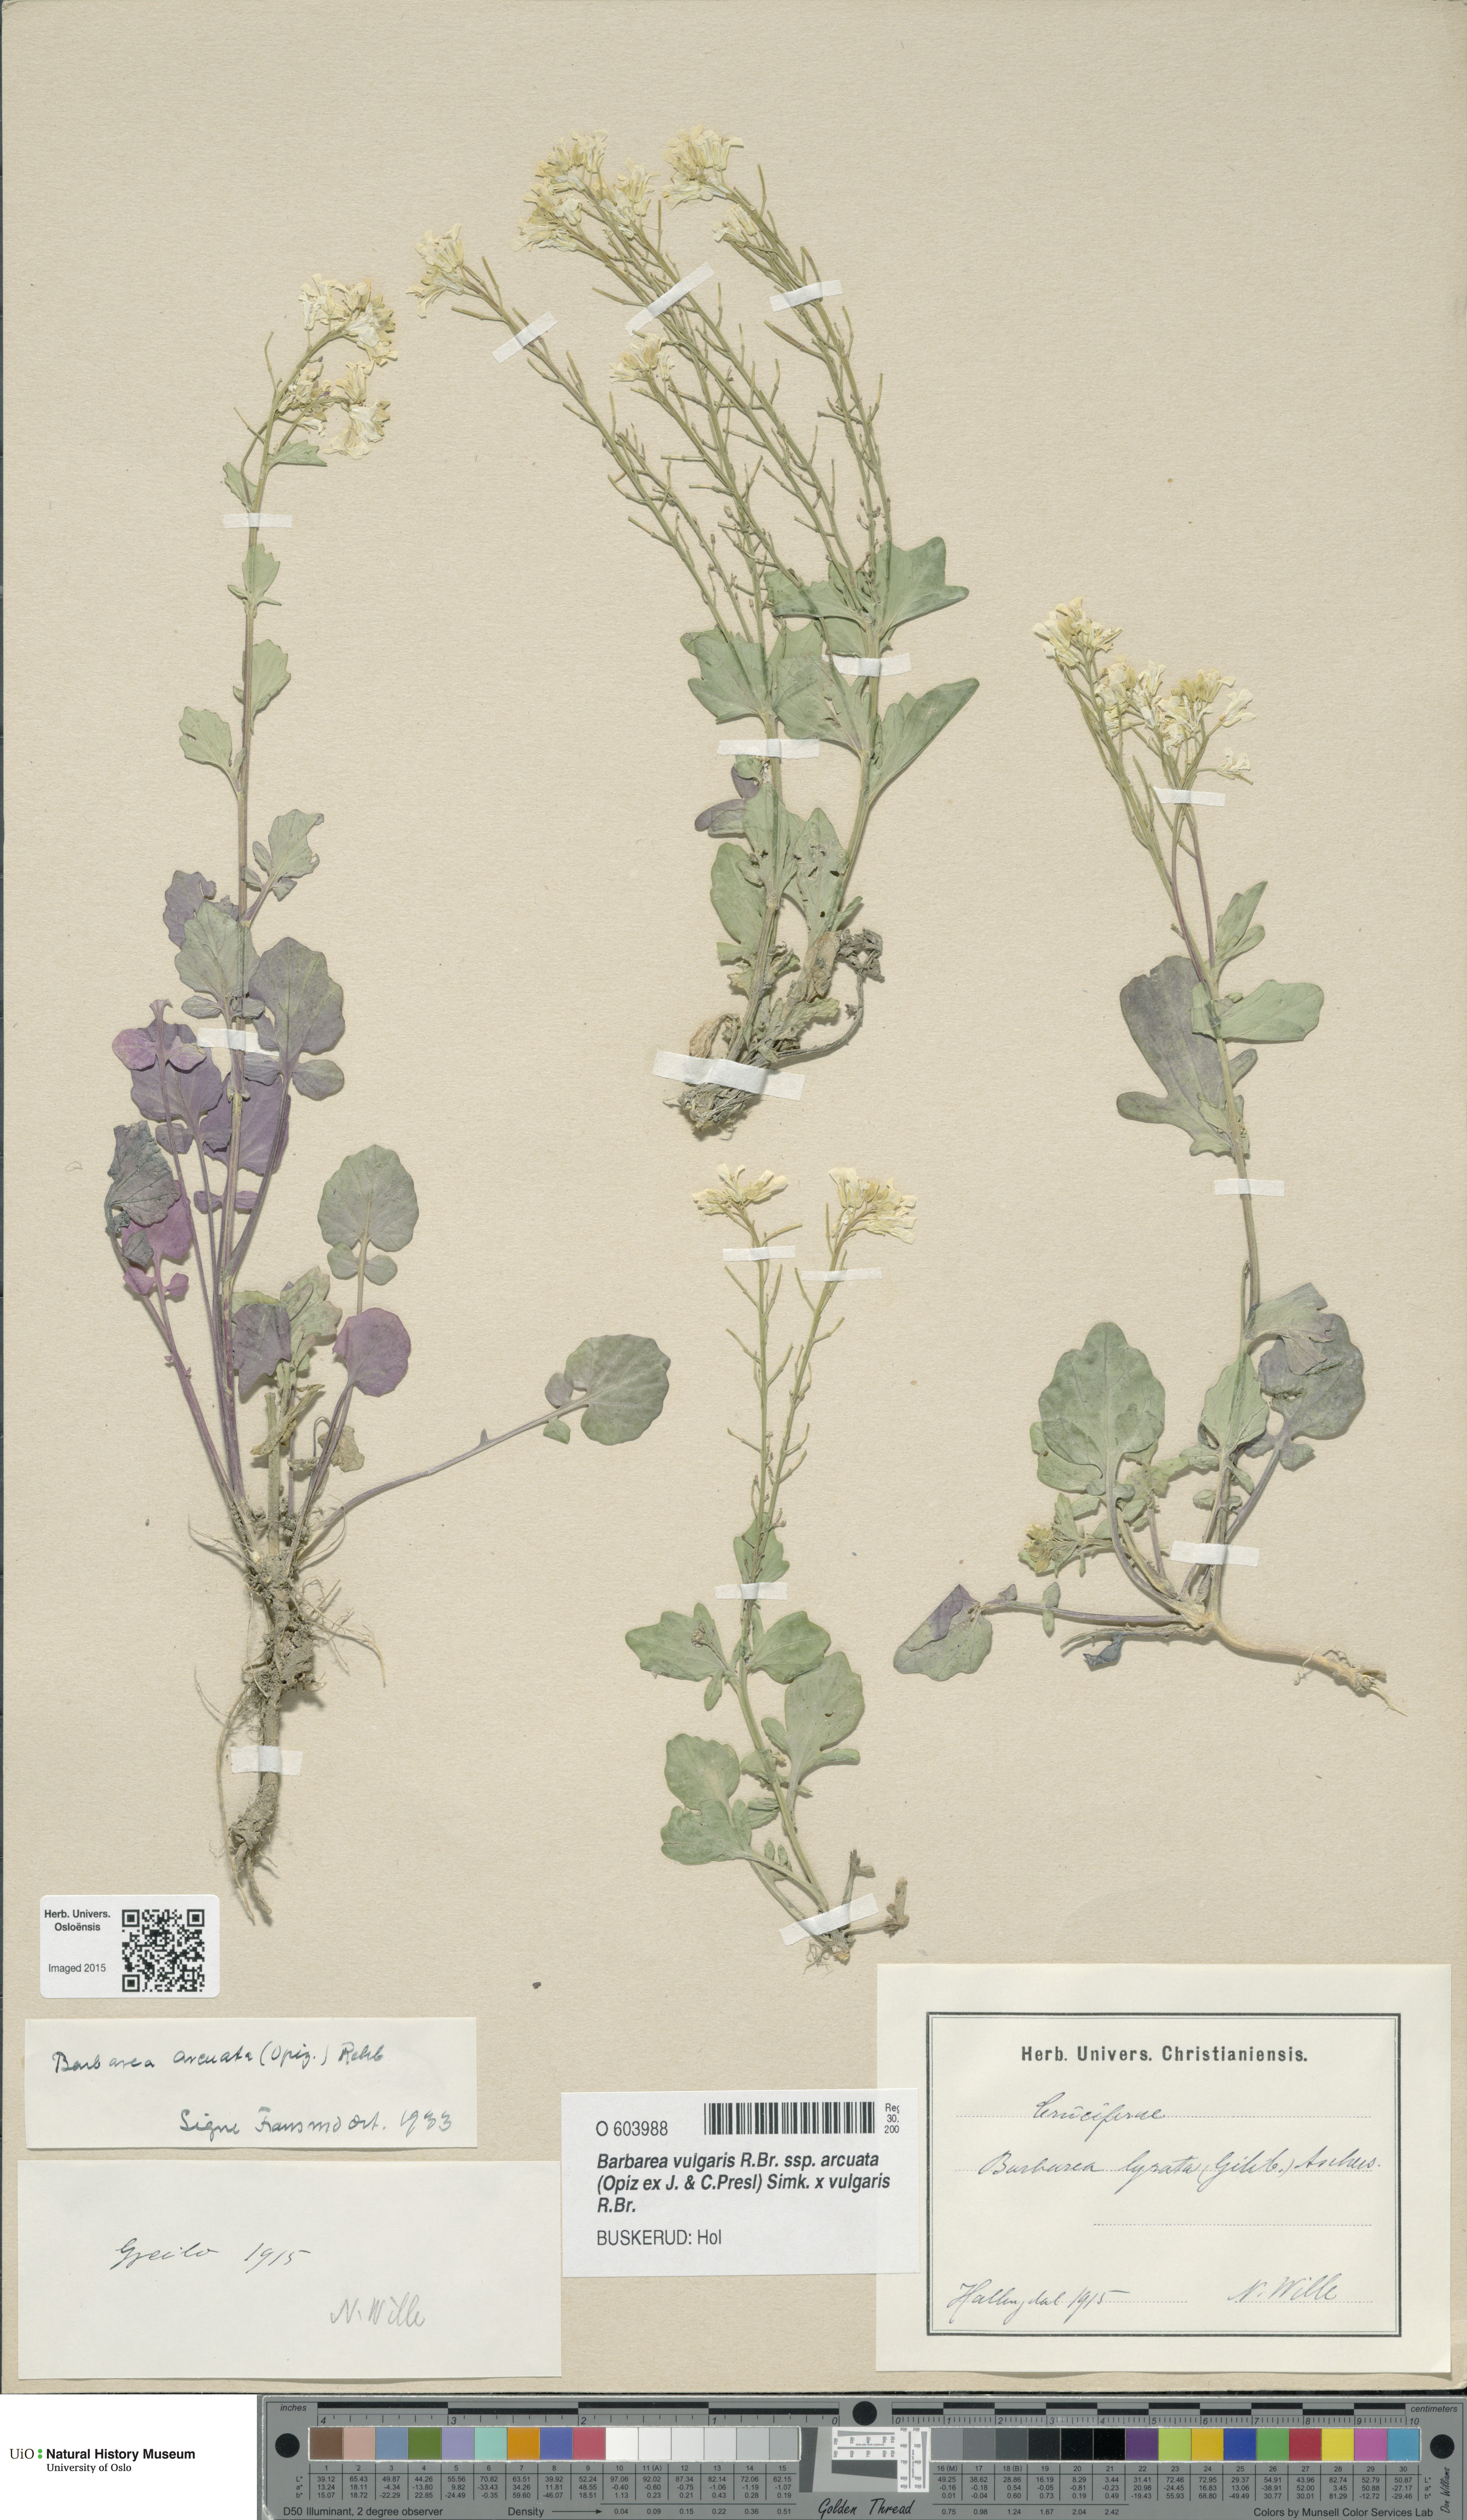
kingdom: Plantae
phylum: Tracheophyta
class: Magnoliopsida
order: Brassicales
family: Brassicaceae
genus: Barbarea
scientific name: Barbarea vulgaris
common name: Cressy-greens
